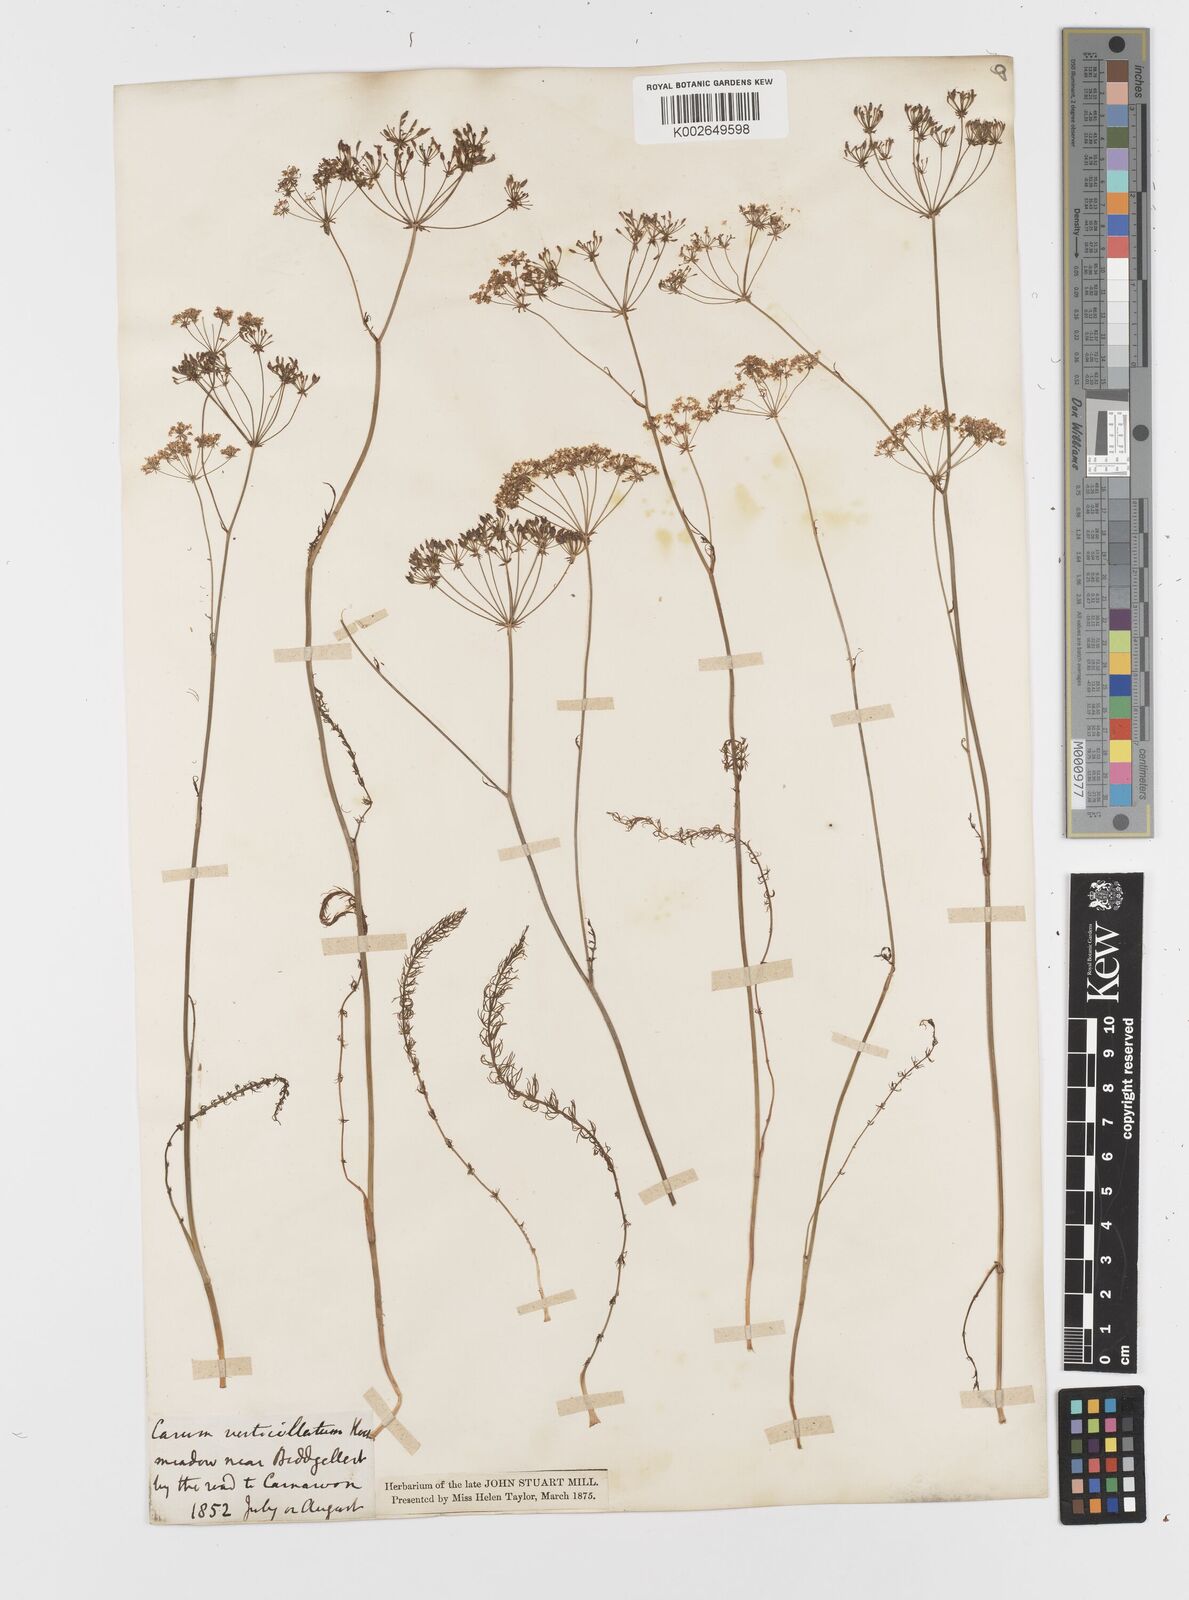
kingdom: Plantae
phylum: Tracheophyta
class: Magnoliopsida
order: Apiales
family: Apiaceae
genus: Trocdaris
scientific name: Trocdaris verticillatum
